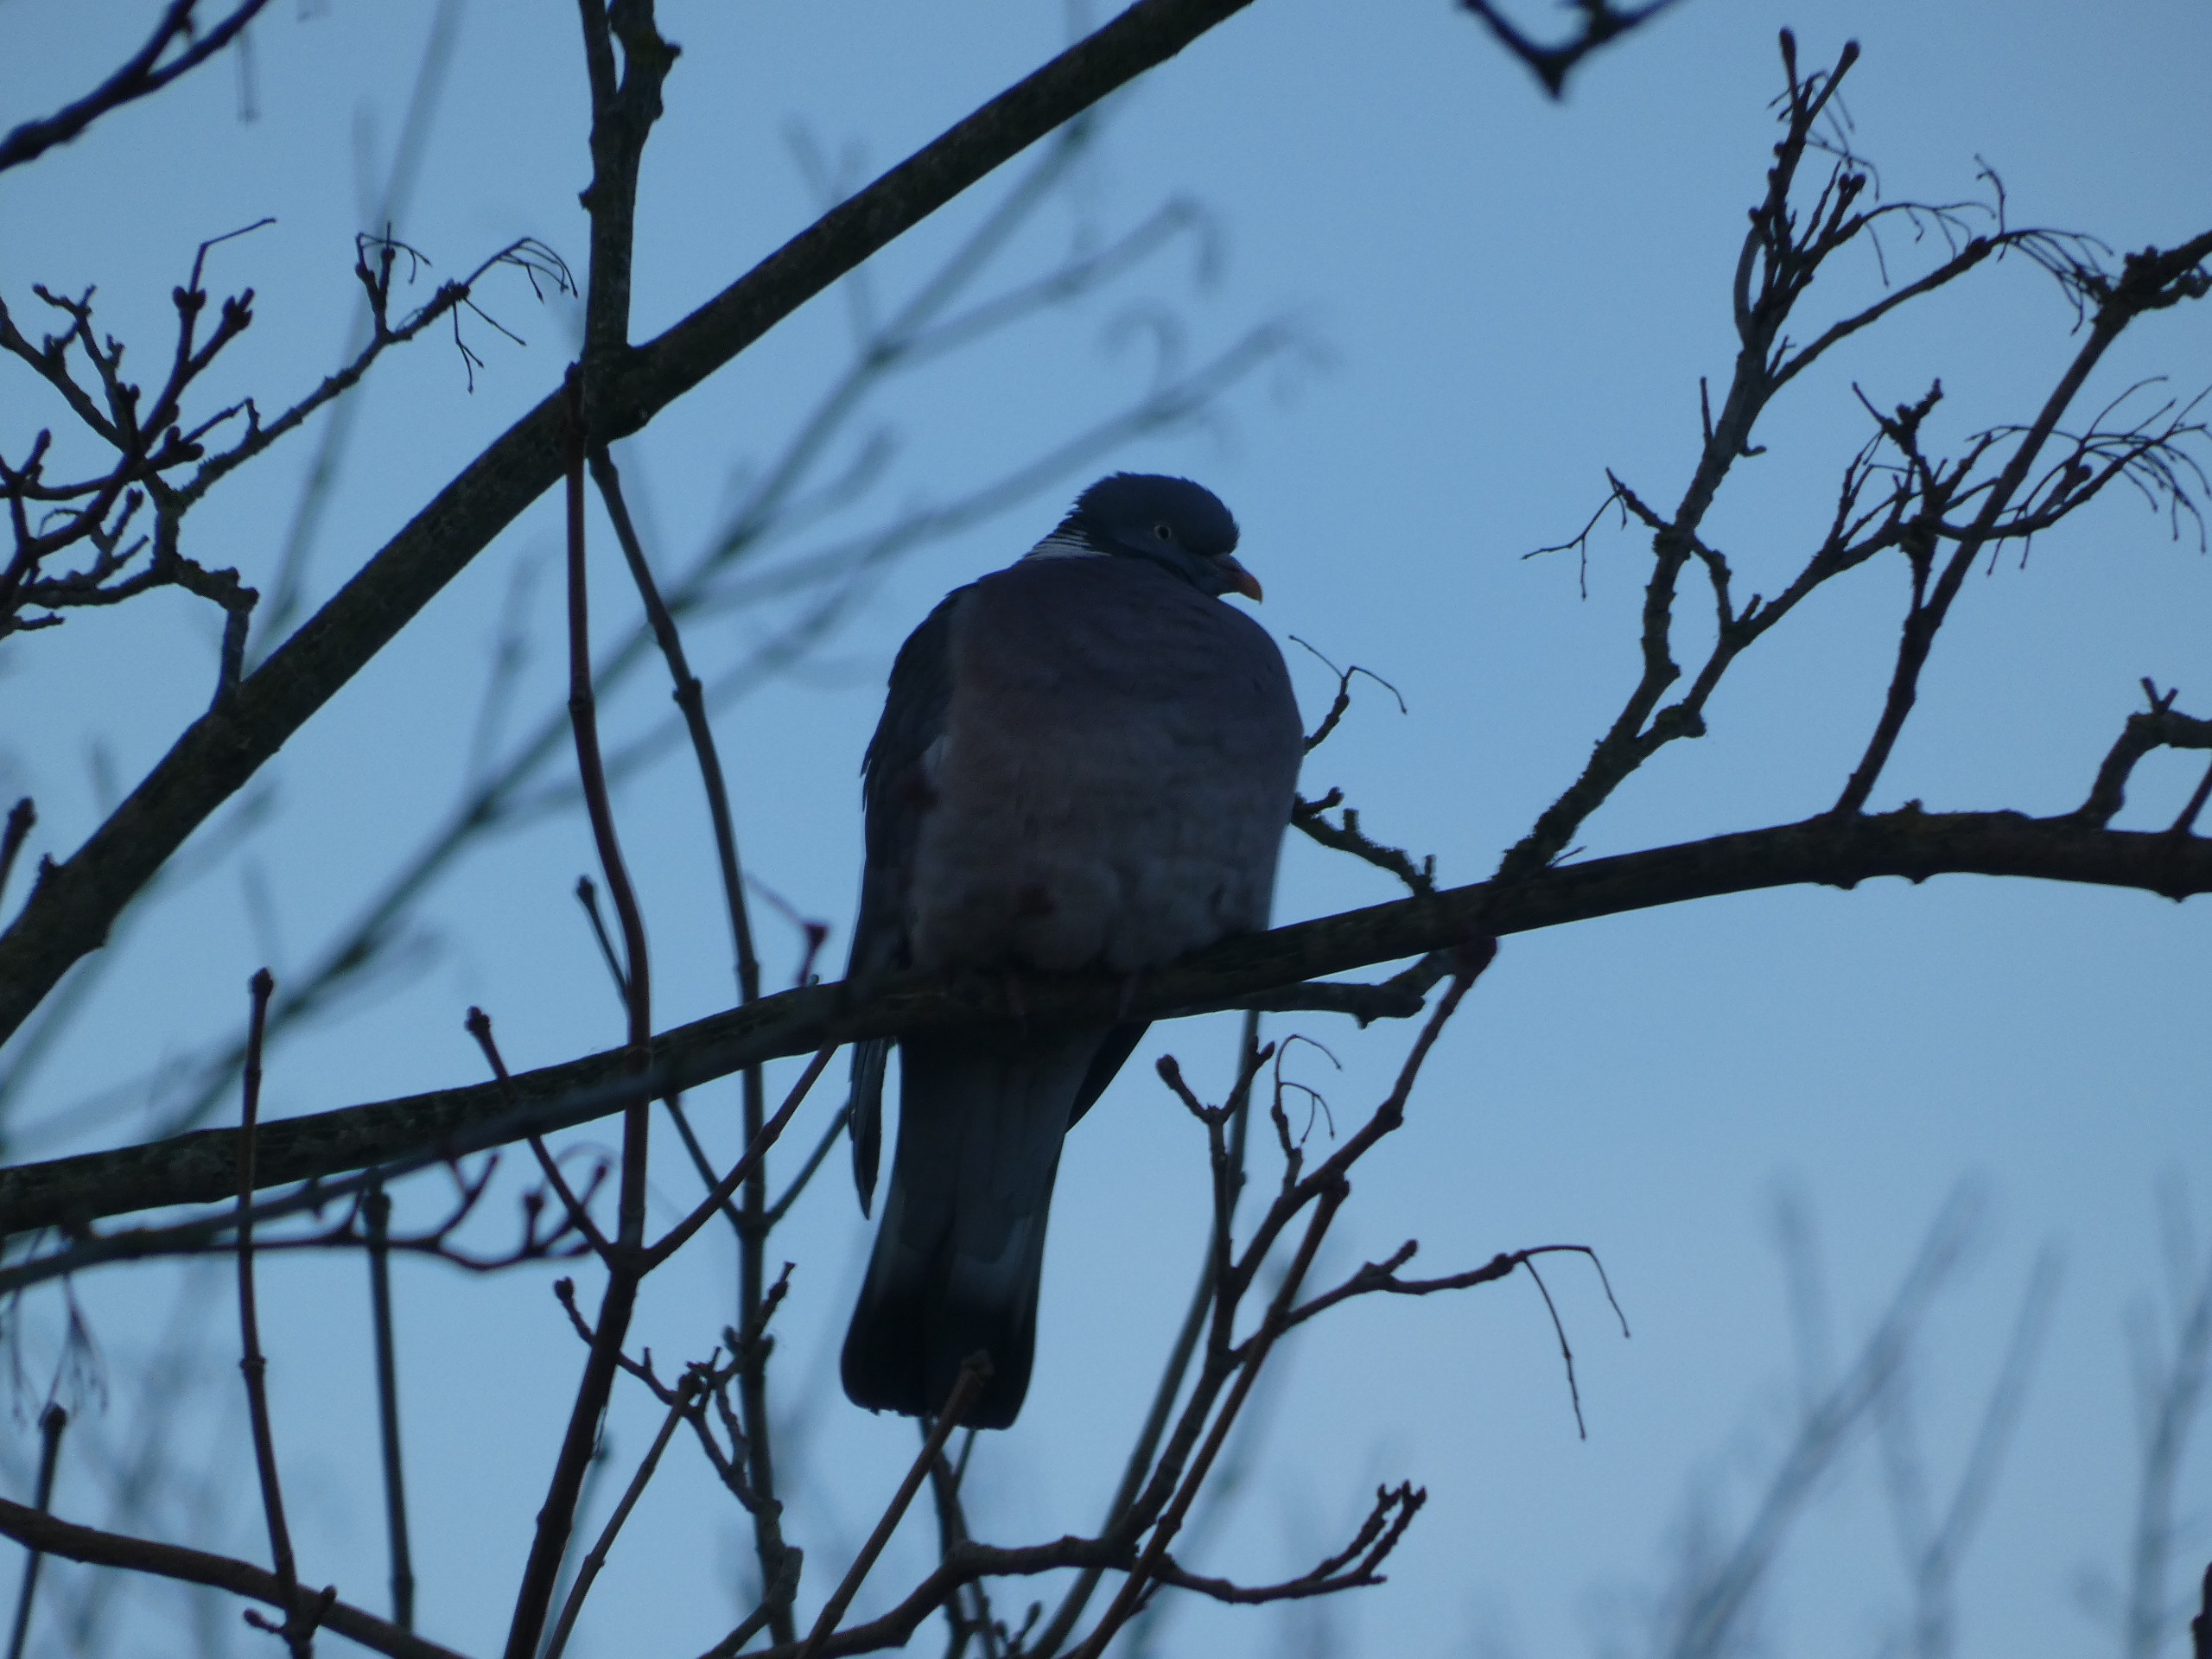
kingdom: Animalia
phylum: Chordata
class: Aves
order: Columbiformes
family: Columbidae
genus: Columba
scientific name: Columba palumbus
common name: Ringdue
